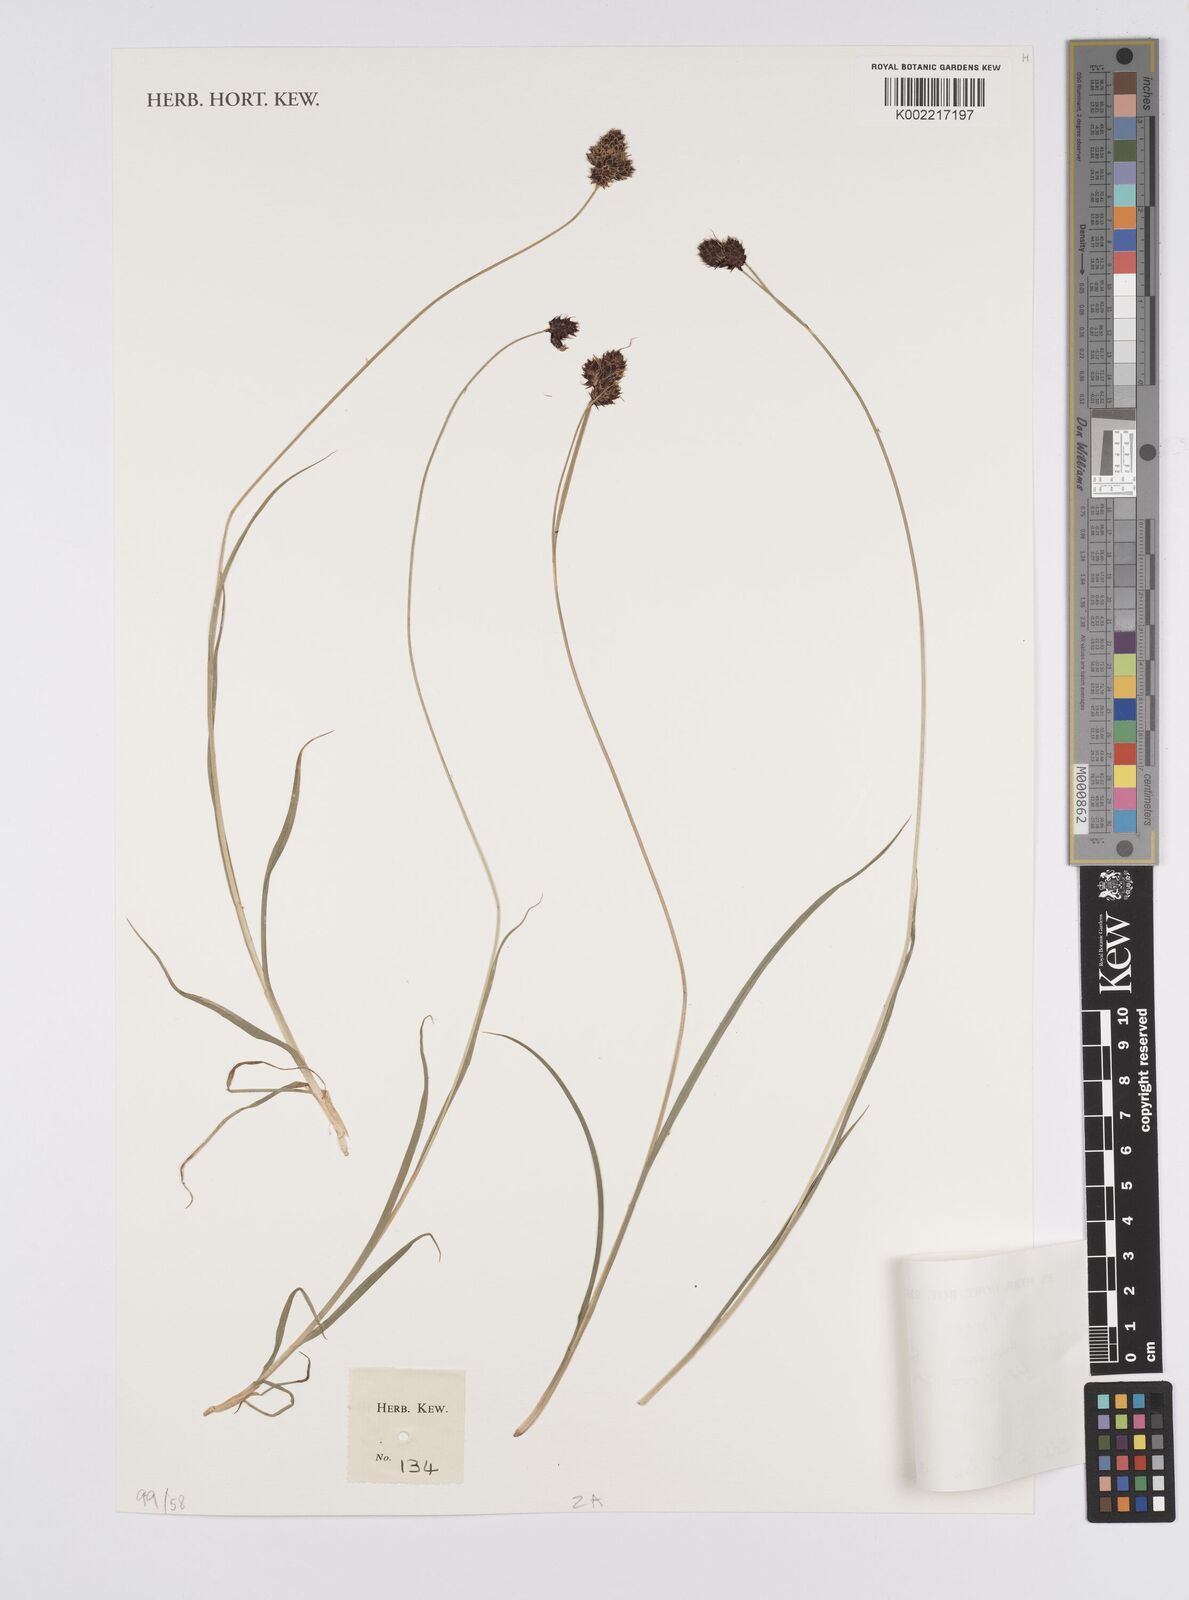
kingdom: Plantae
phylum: Tracheophyta
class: Liliopsida
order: Poales
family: Cyperaceae
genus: Carex
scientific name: Carex
